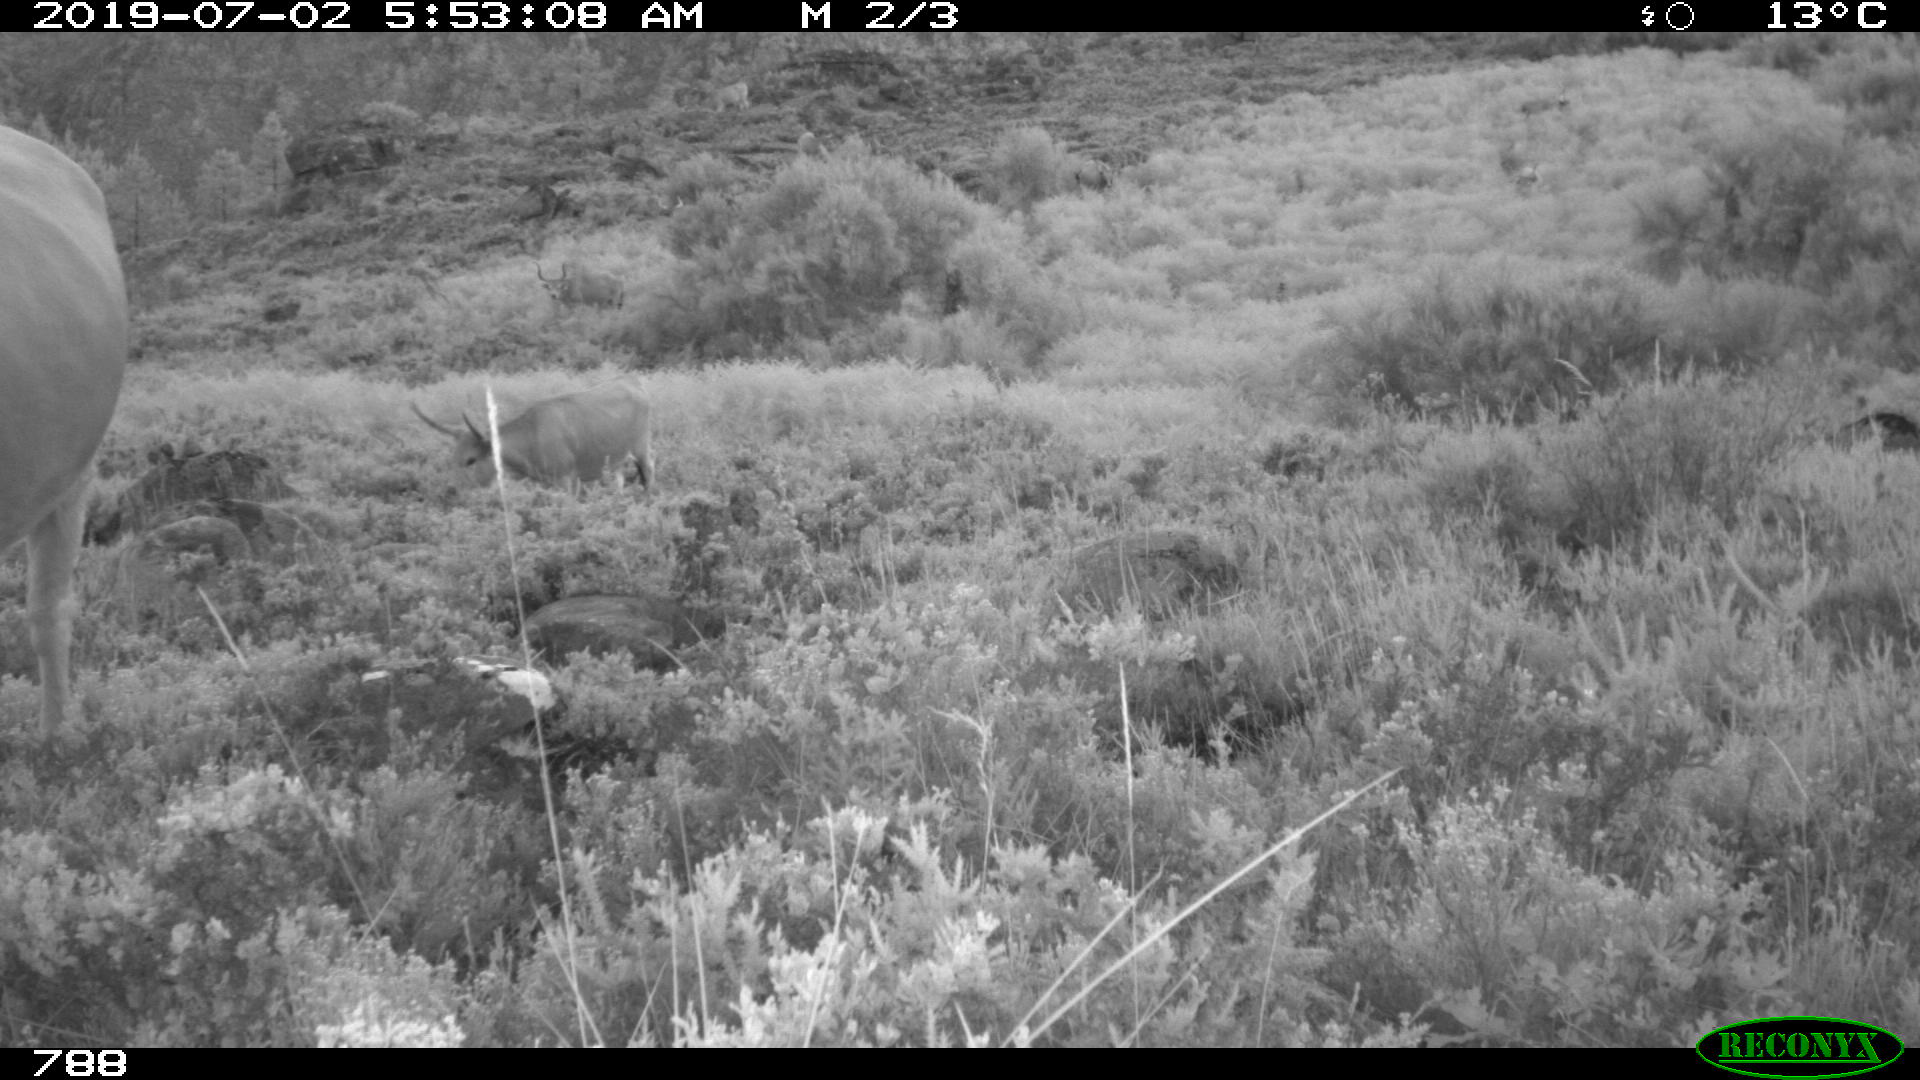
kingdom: Animalia
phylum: Chordata
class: Mammalia
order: Artiodactyla
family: Bovidae
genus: Bos
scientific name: Bos taurus
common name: Domesticated cattle
